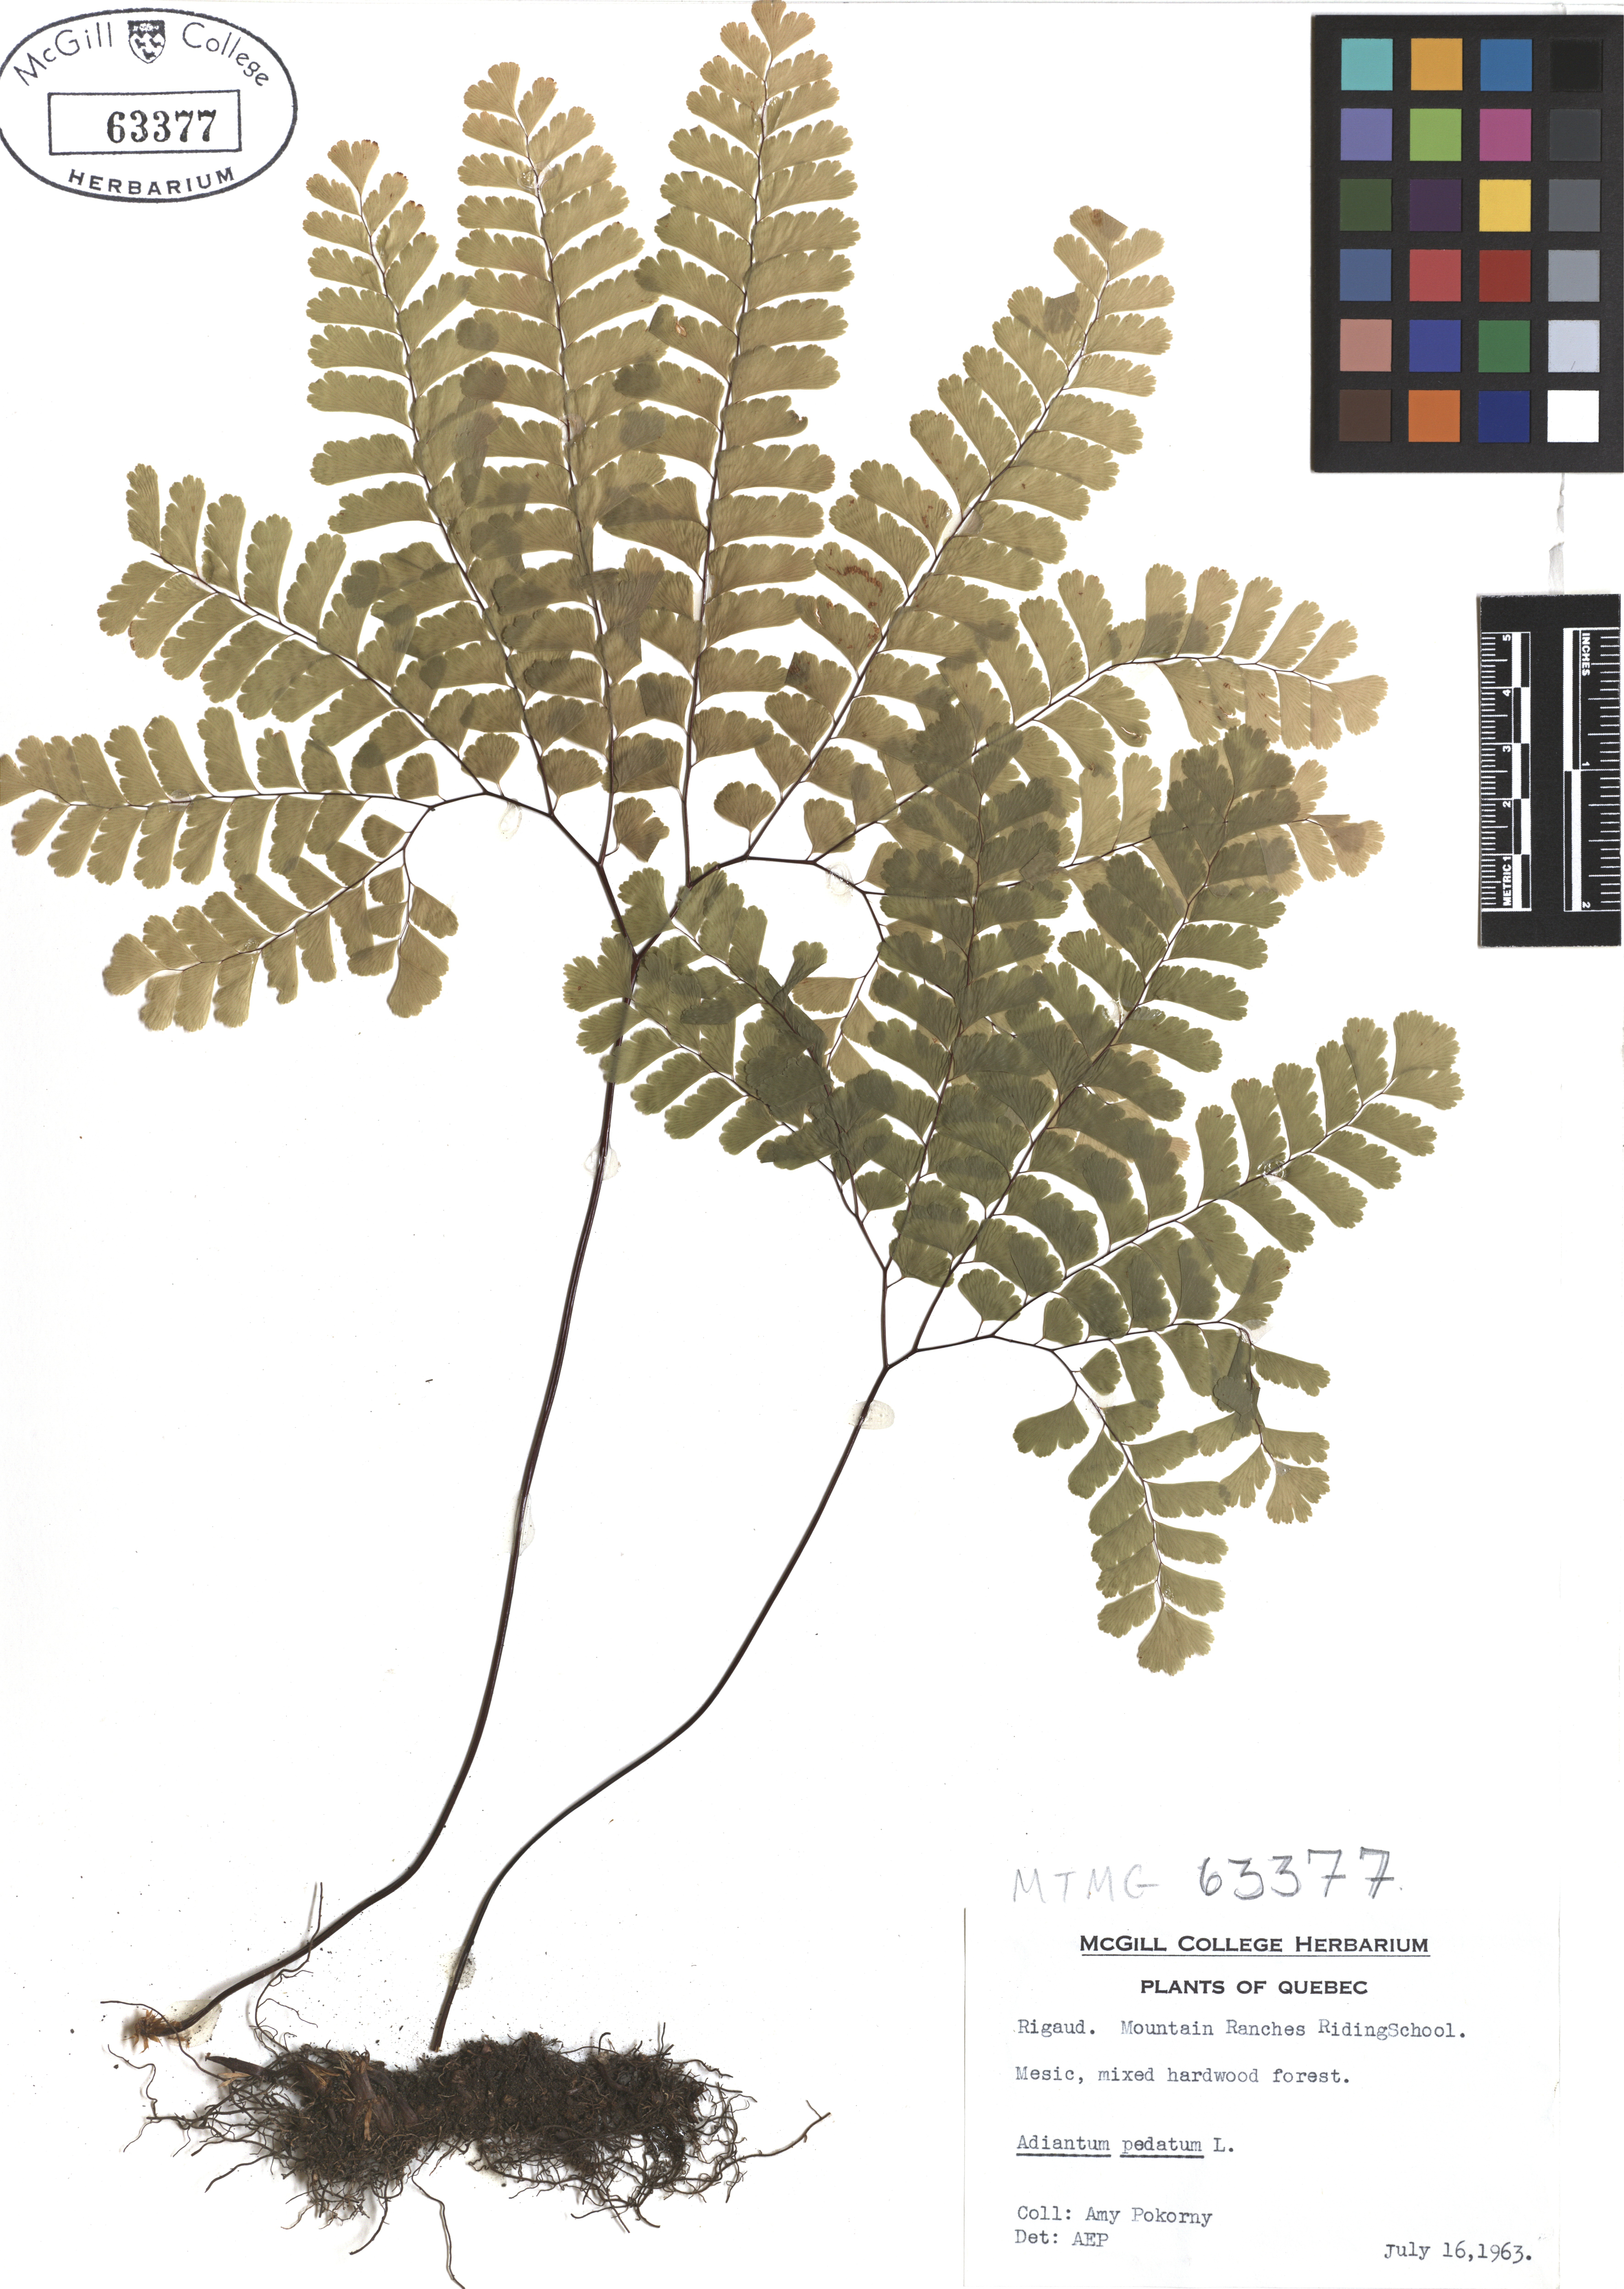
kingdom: Plantae
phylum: Tracheophyta
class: Polypodiopsida
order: Polypodiales
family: Pteridaceae
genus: Adiantum
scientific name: Adiantum pedatum
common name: Five-finger fern
